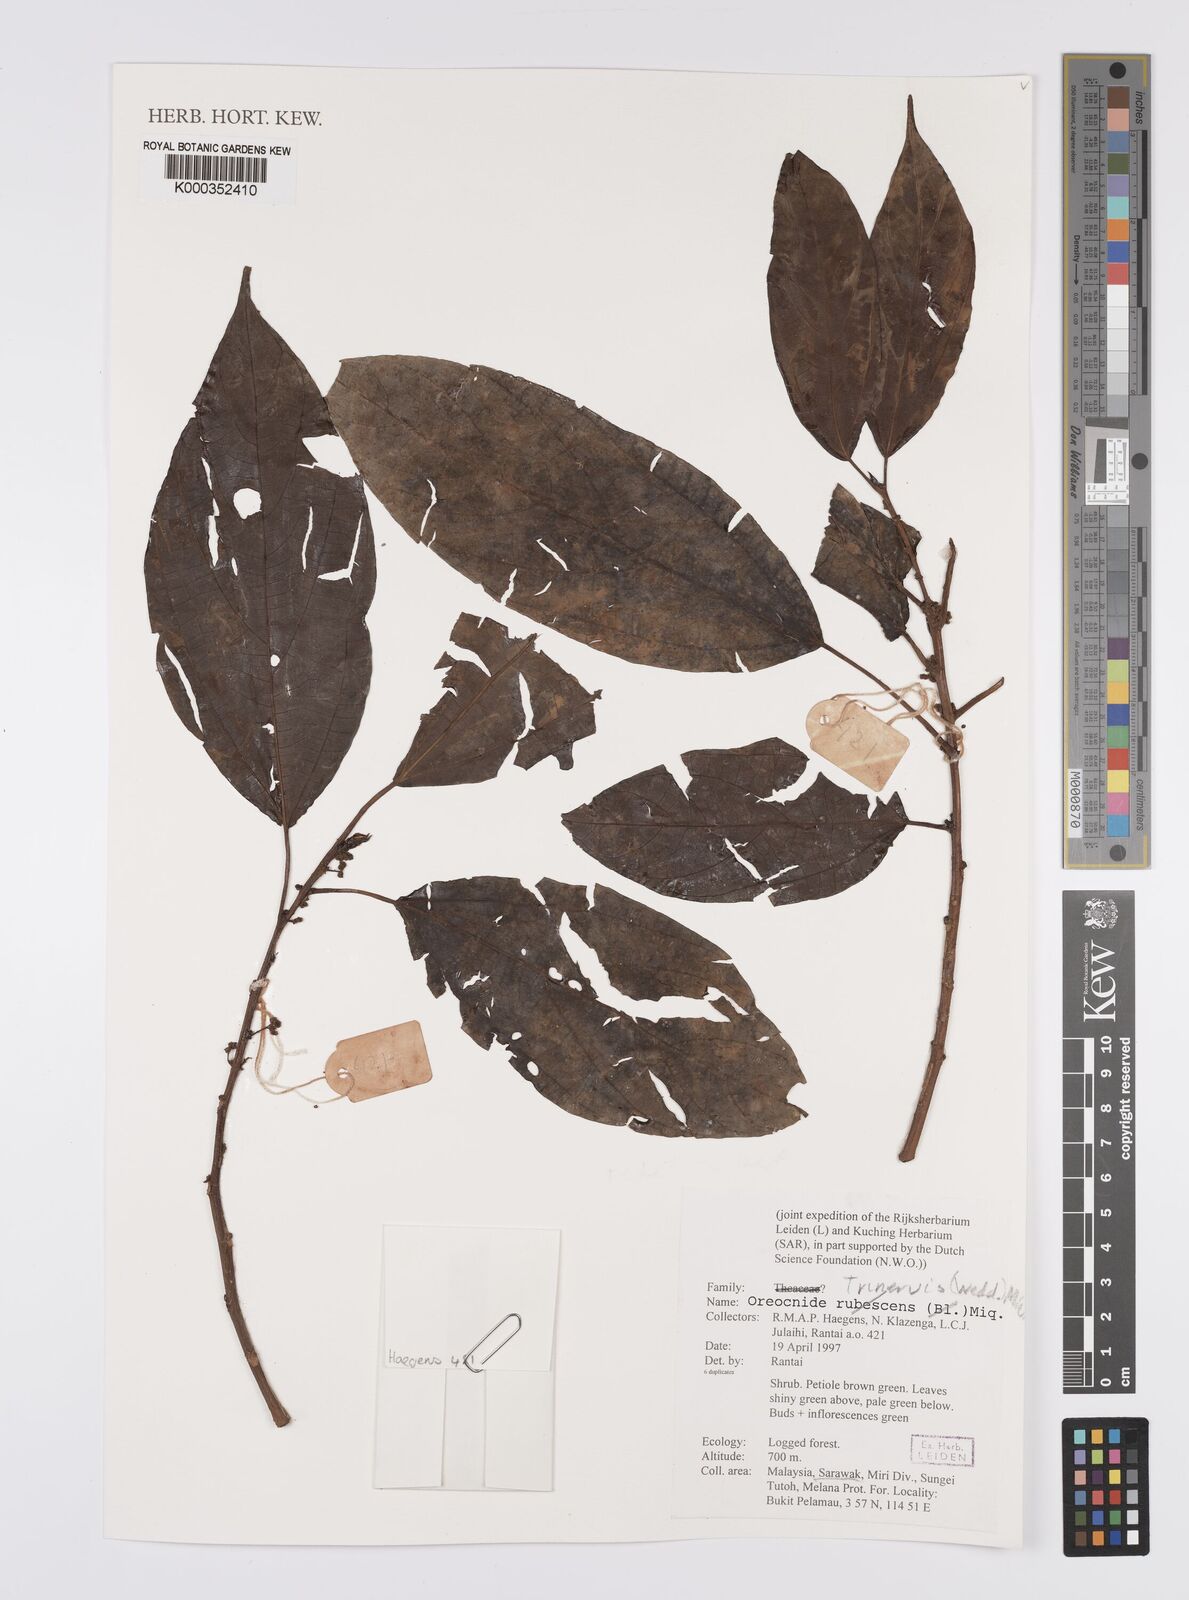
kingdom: Plantae
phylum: Tracheophyta
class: Magnoliopsida
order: Rosales
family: Urticaceae
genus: Oreocnide
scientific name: Oreocnide trinervis
